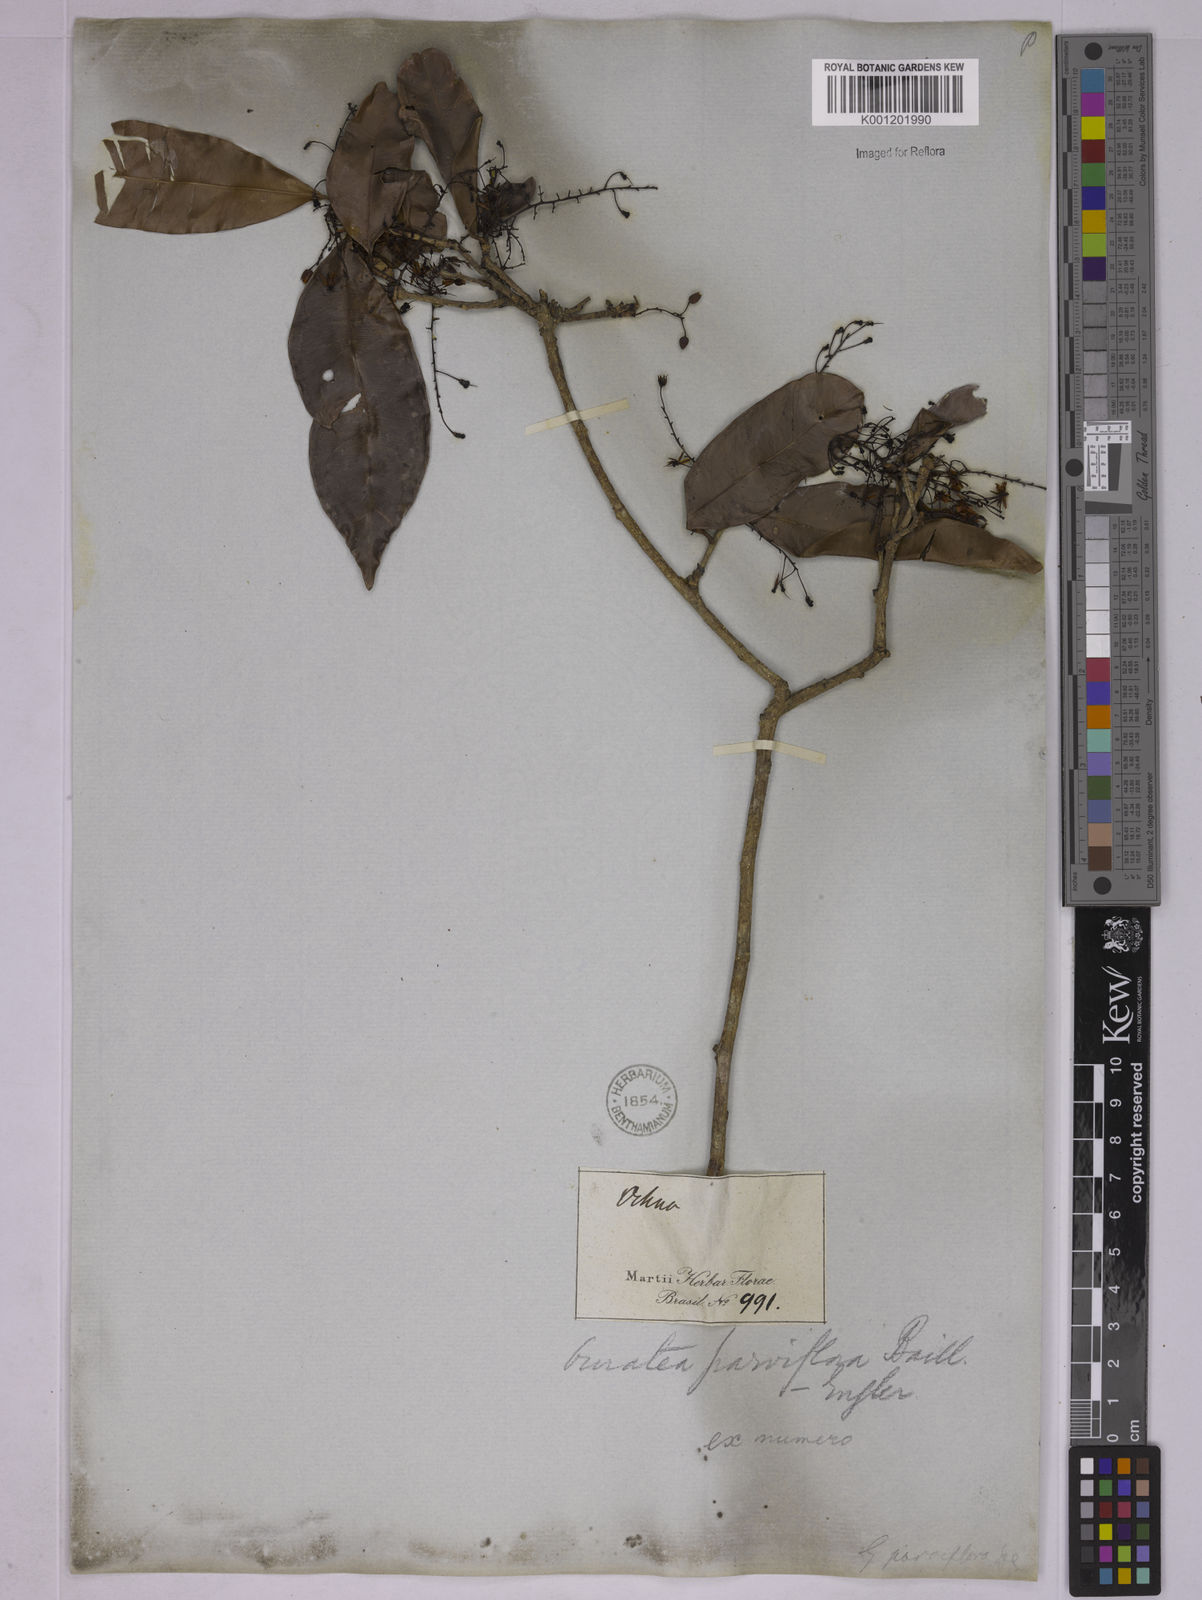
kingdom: Plantae
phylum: Tracheophyta
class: Magnoliopsida
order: Malpighiales
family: Ochnaceae
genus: Ouratea
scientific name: Ouratea parviflora
